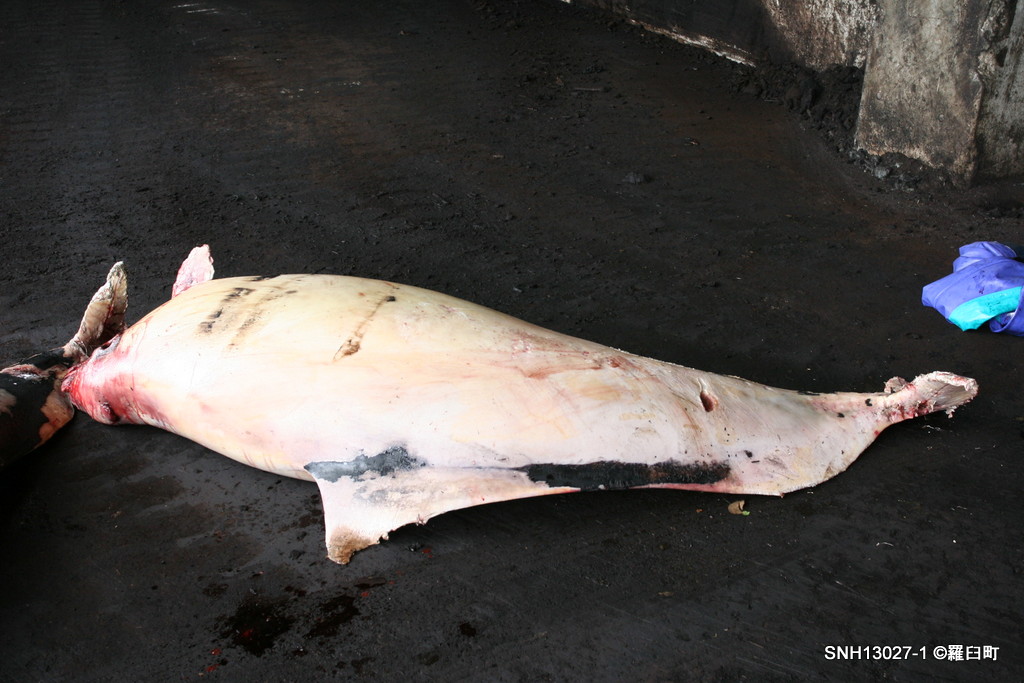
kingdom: Animalia
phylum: Chordata
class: Mammalia
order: Cetacea
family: Phocoenidae
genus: Phocoenoides
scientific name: Phocoenoides dalli
